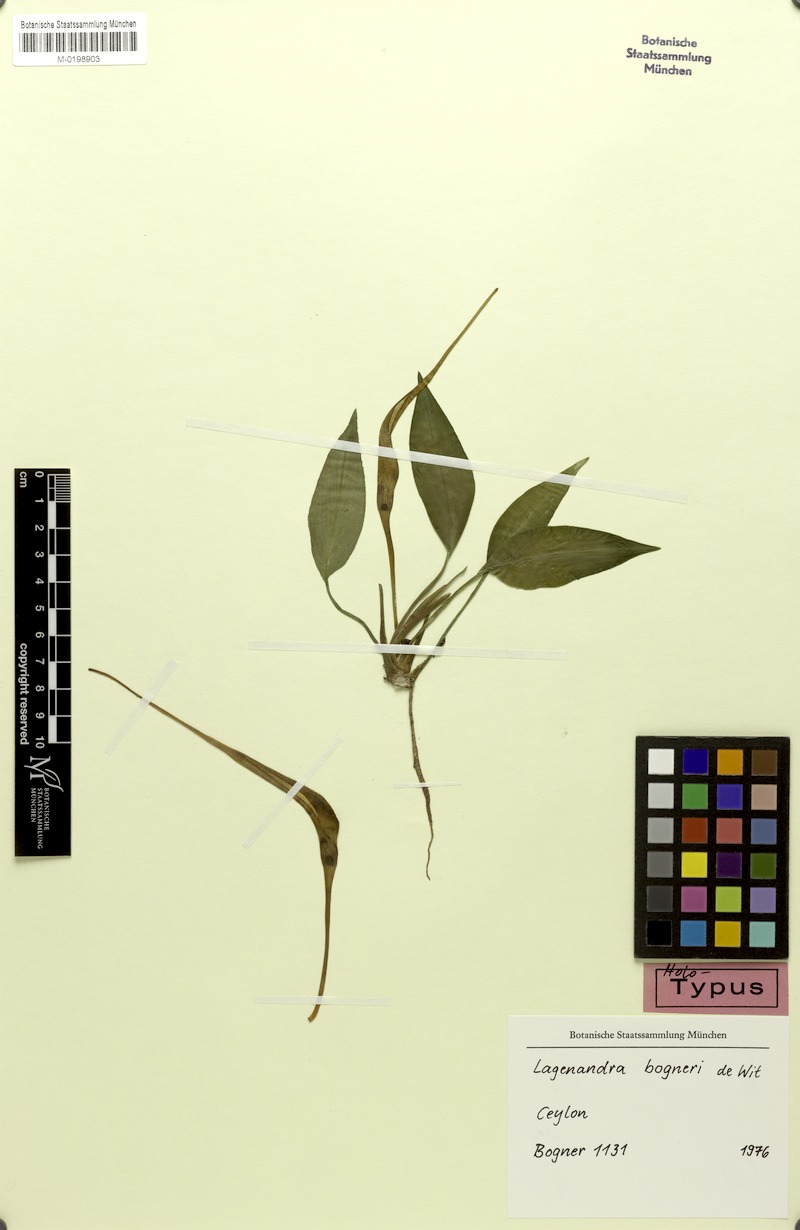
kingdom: Plantae
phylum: Tracheophyta
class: Liliopsida
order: Alismatales
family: Araceae
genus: Lagenandra
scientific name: Lagenandra bogneri
